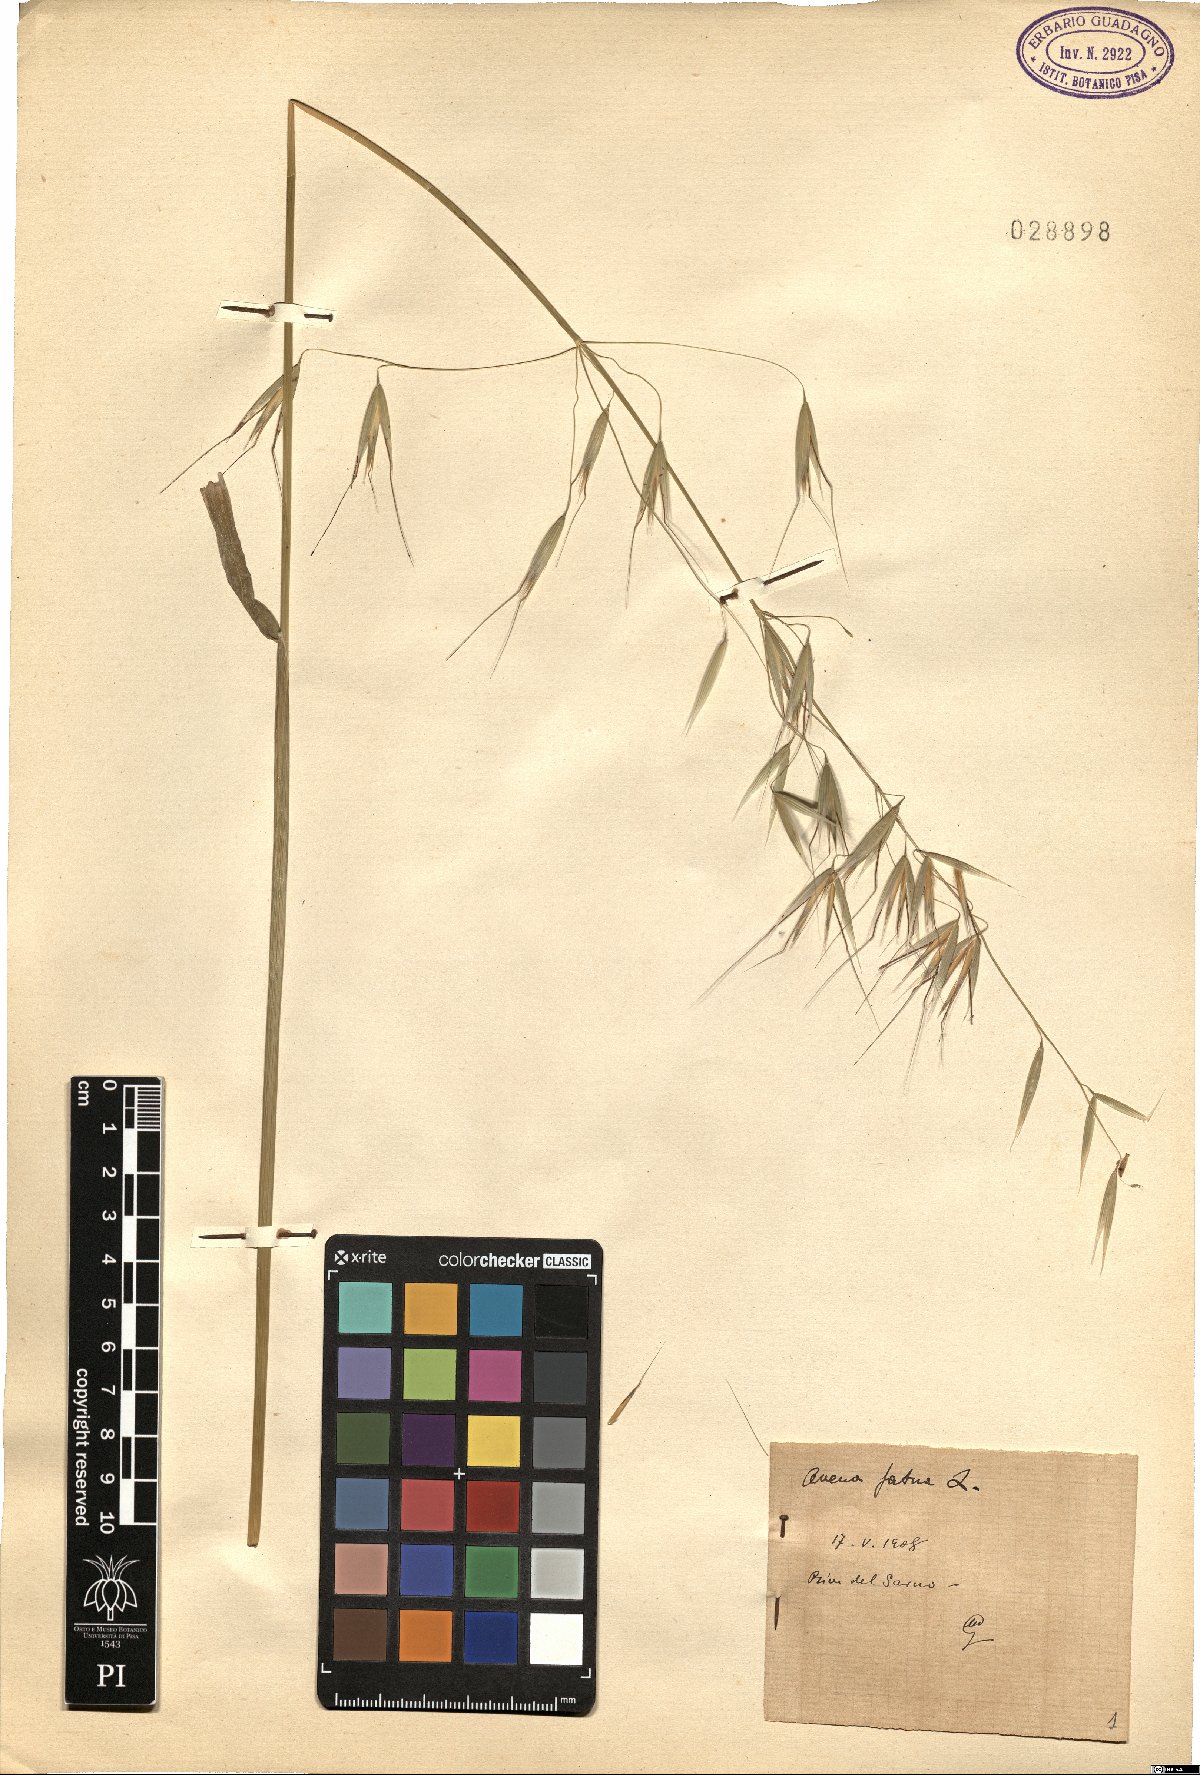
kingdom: Plantae
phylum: Tracheophyta
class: Liliopsida
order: Poales
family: Poaceae
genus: Avena
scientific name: Avena fatua
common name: Wild oat
